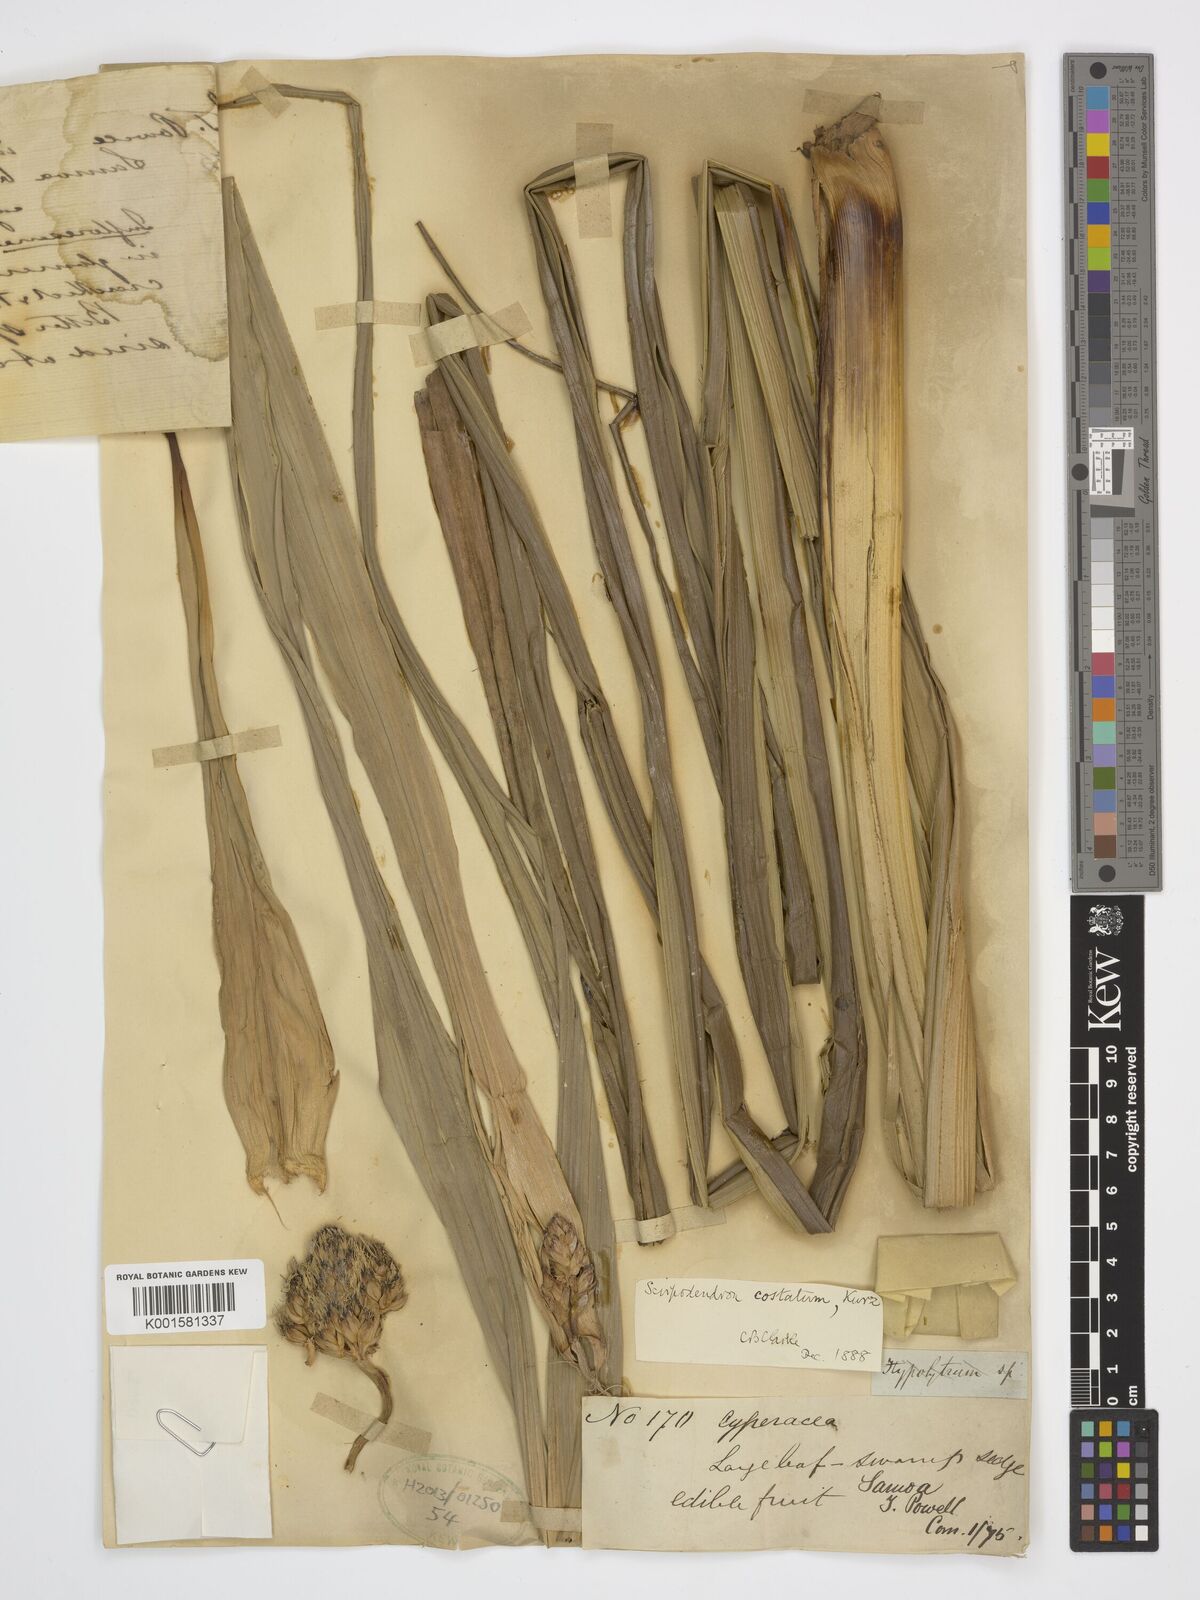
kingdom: Plantae
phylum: Tracheophyta
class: Liliopsida
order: Poales
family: Cyperaceae
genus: Scirpodendron
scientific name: Scirpodendron ghaeri
